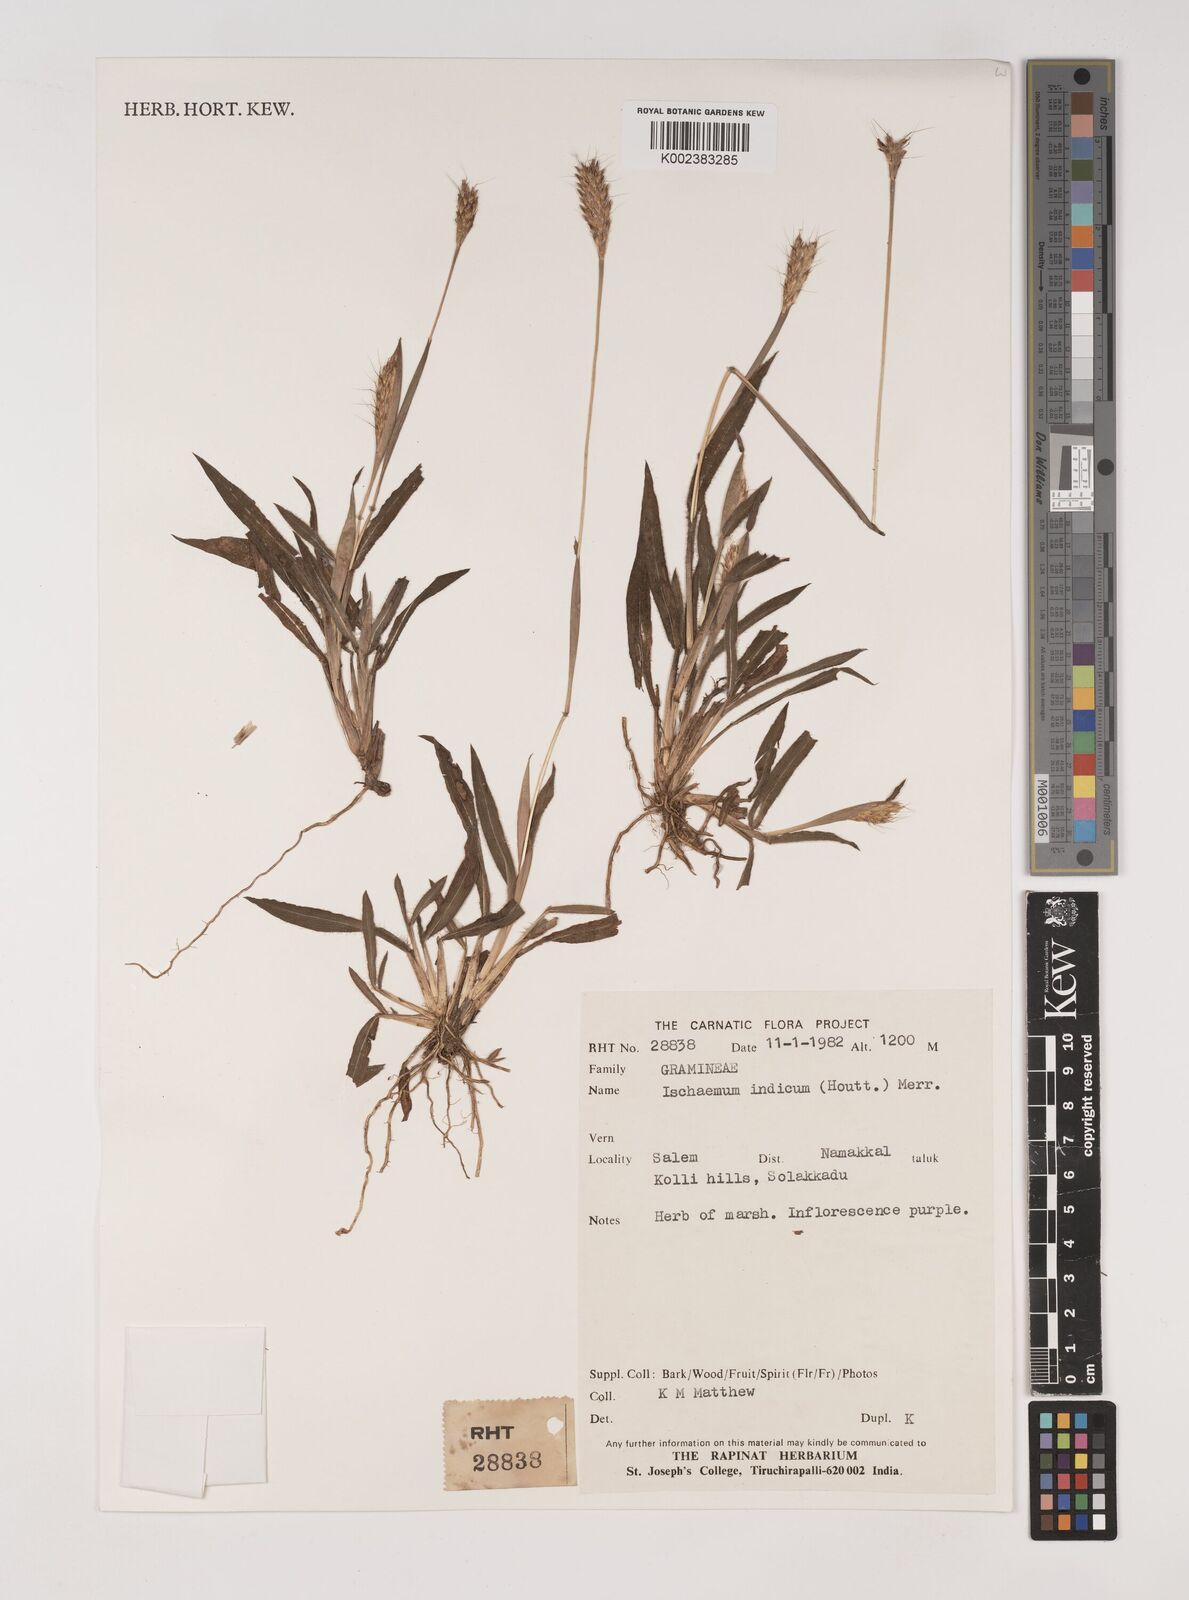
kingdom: Plantae
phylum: Tracheophyta
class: Liliopsida
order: Poales
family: Poaceae
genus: Polytrias
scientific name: Polytrias indica
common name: Indian murainagrass
